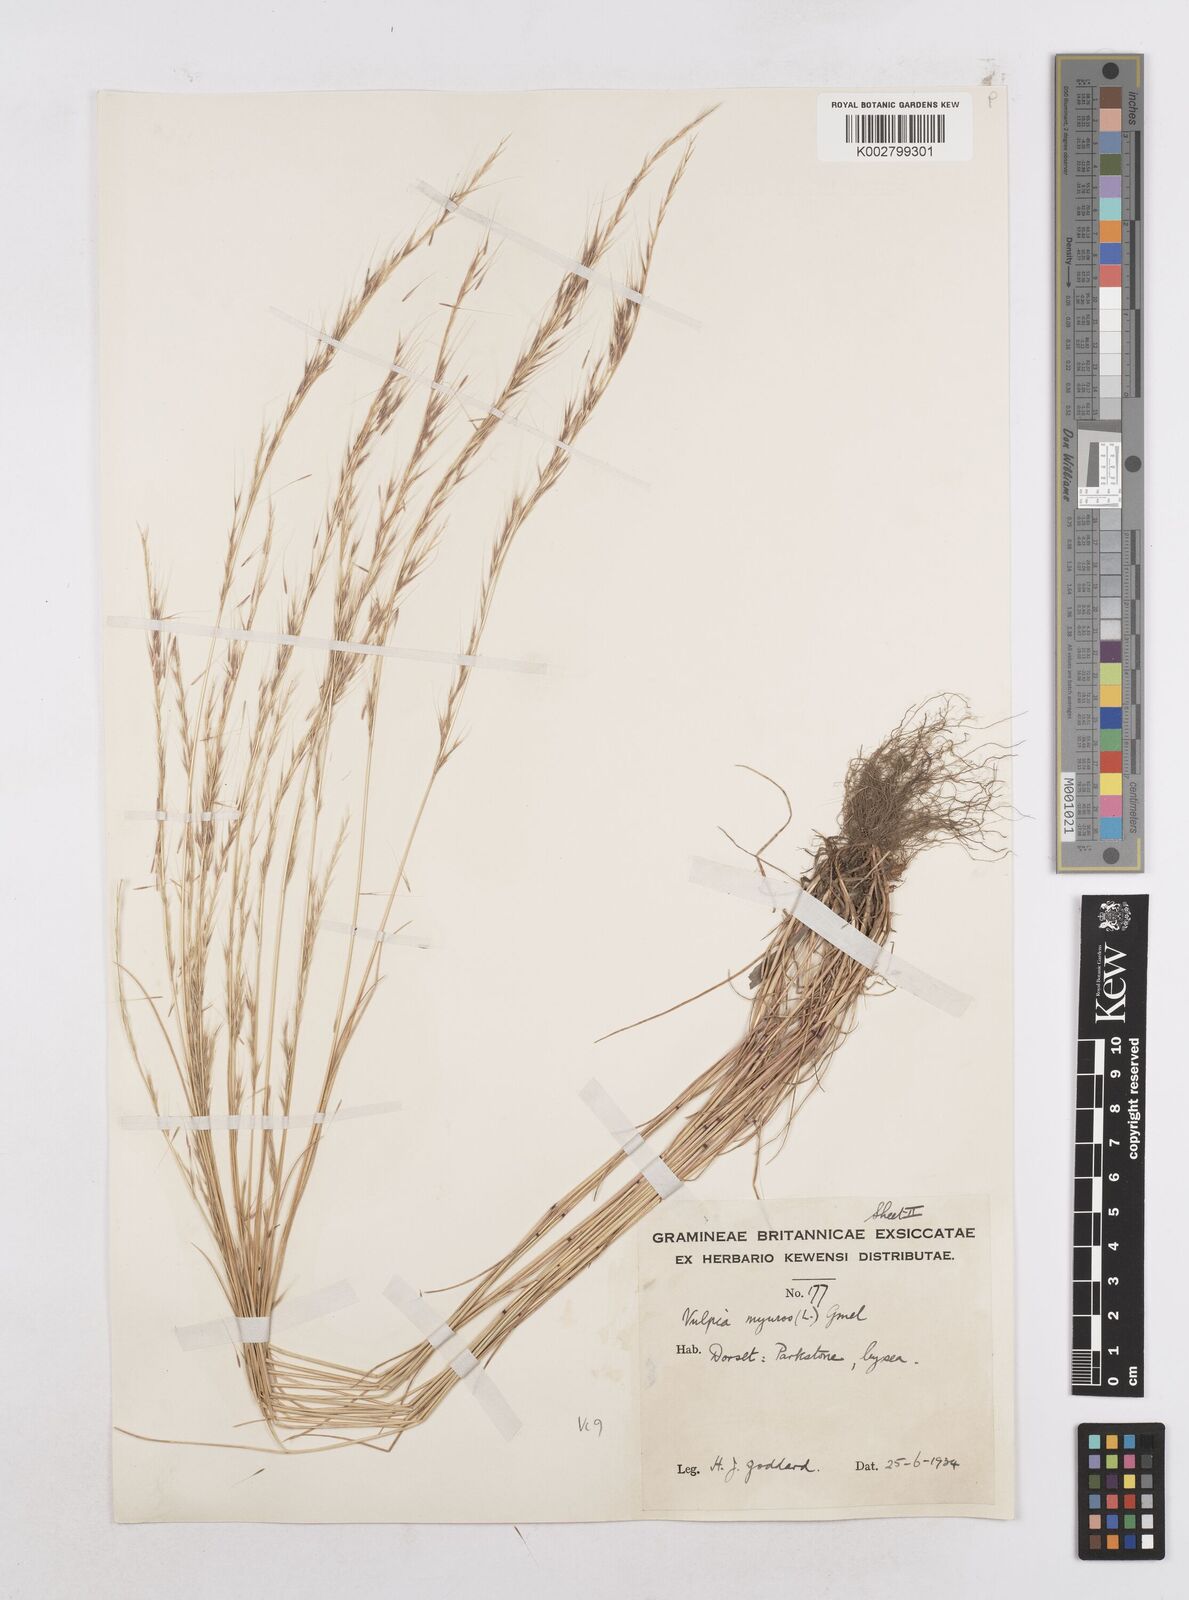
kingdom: Plantae
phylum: Tracheophyta
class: Liliopsida
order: Poales
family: Poaceae
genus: Festuca
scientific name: Festuca myuros
